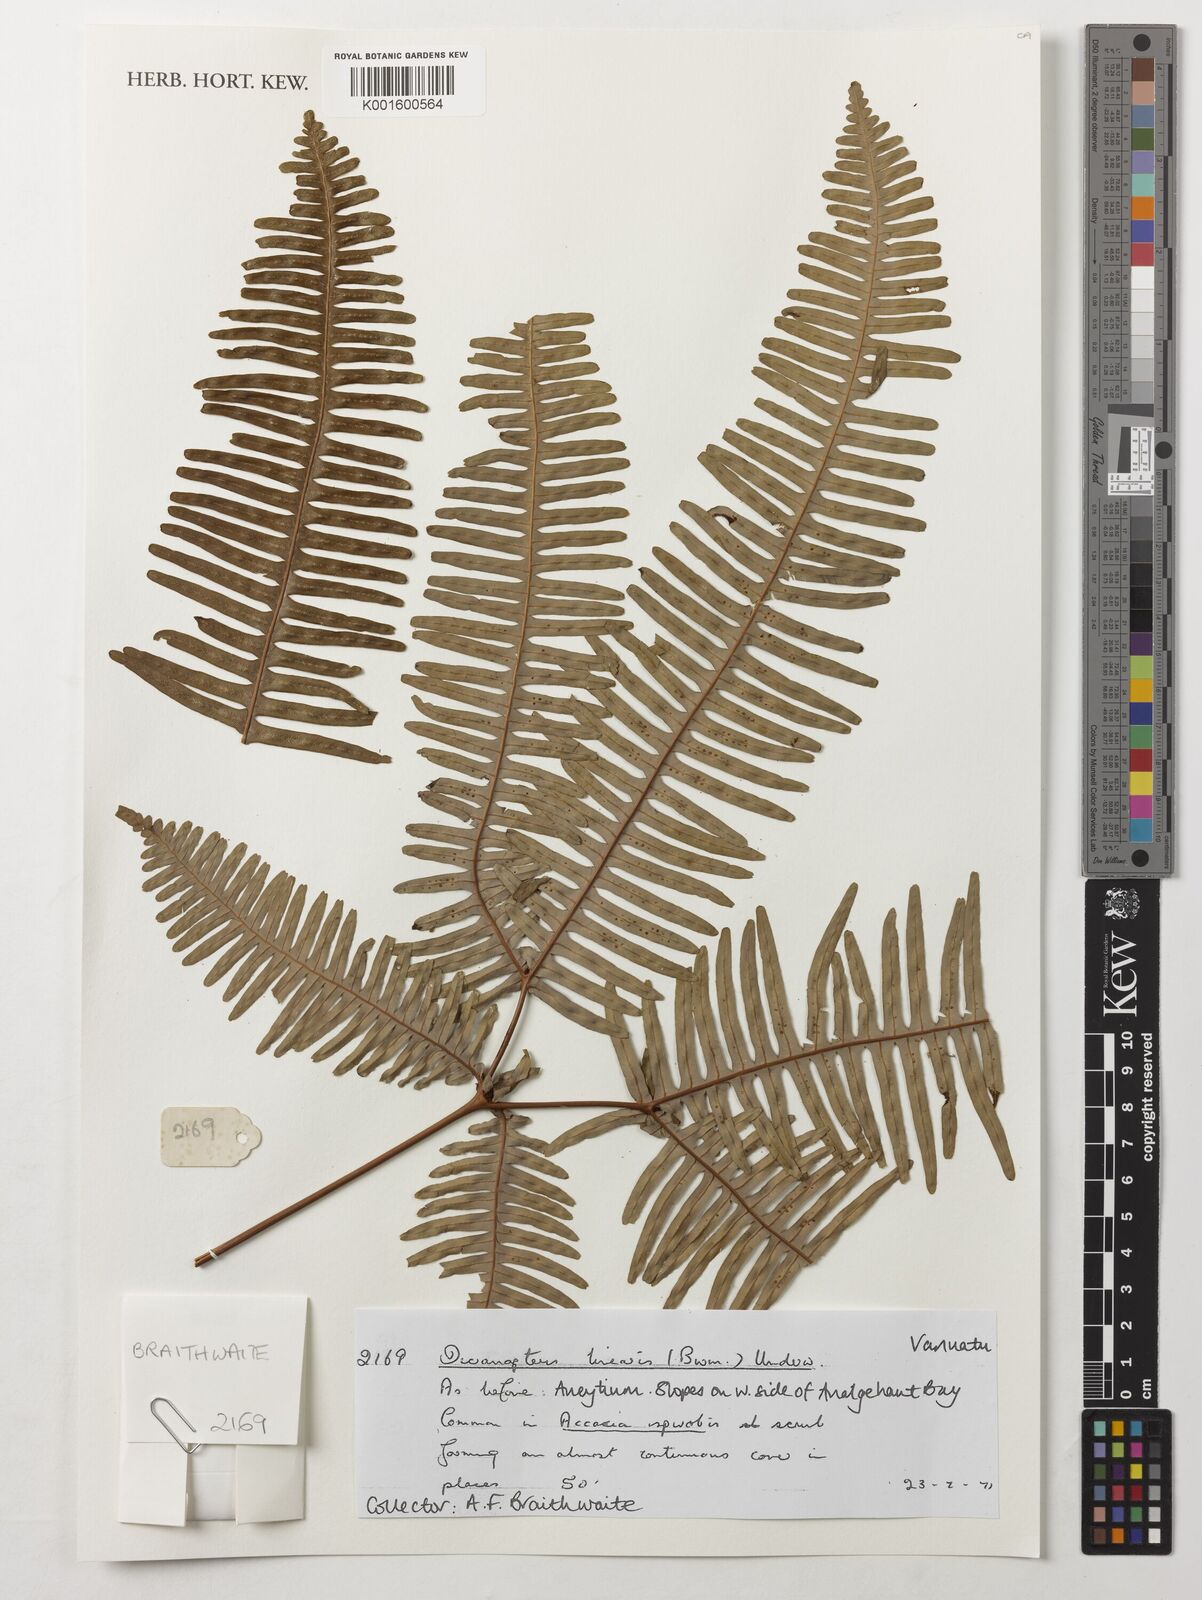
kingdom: Plantae
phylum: Tracheophyta
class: Polypodiopsida
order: Gleicheniales
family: Gleicheniaceae
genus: Dicranopteris
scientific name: Dicranopteris linearis
